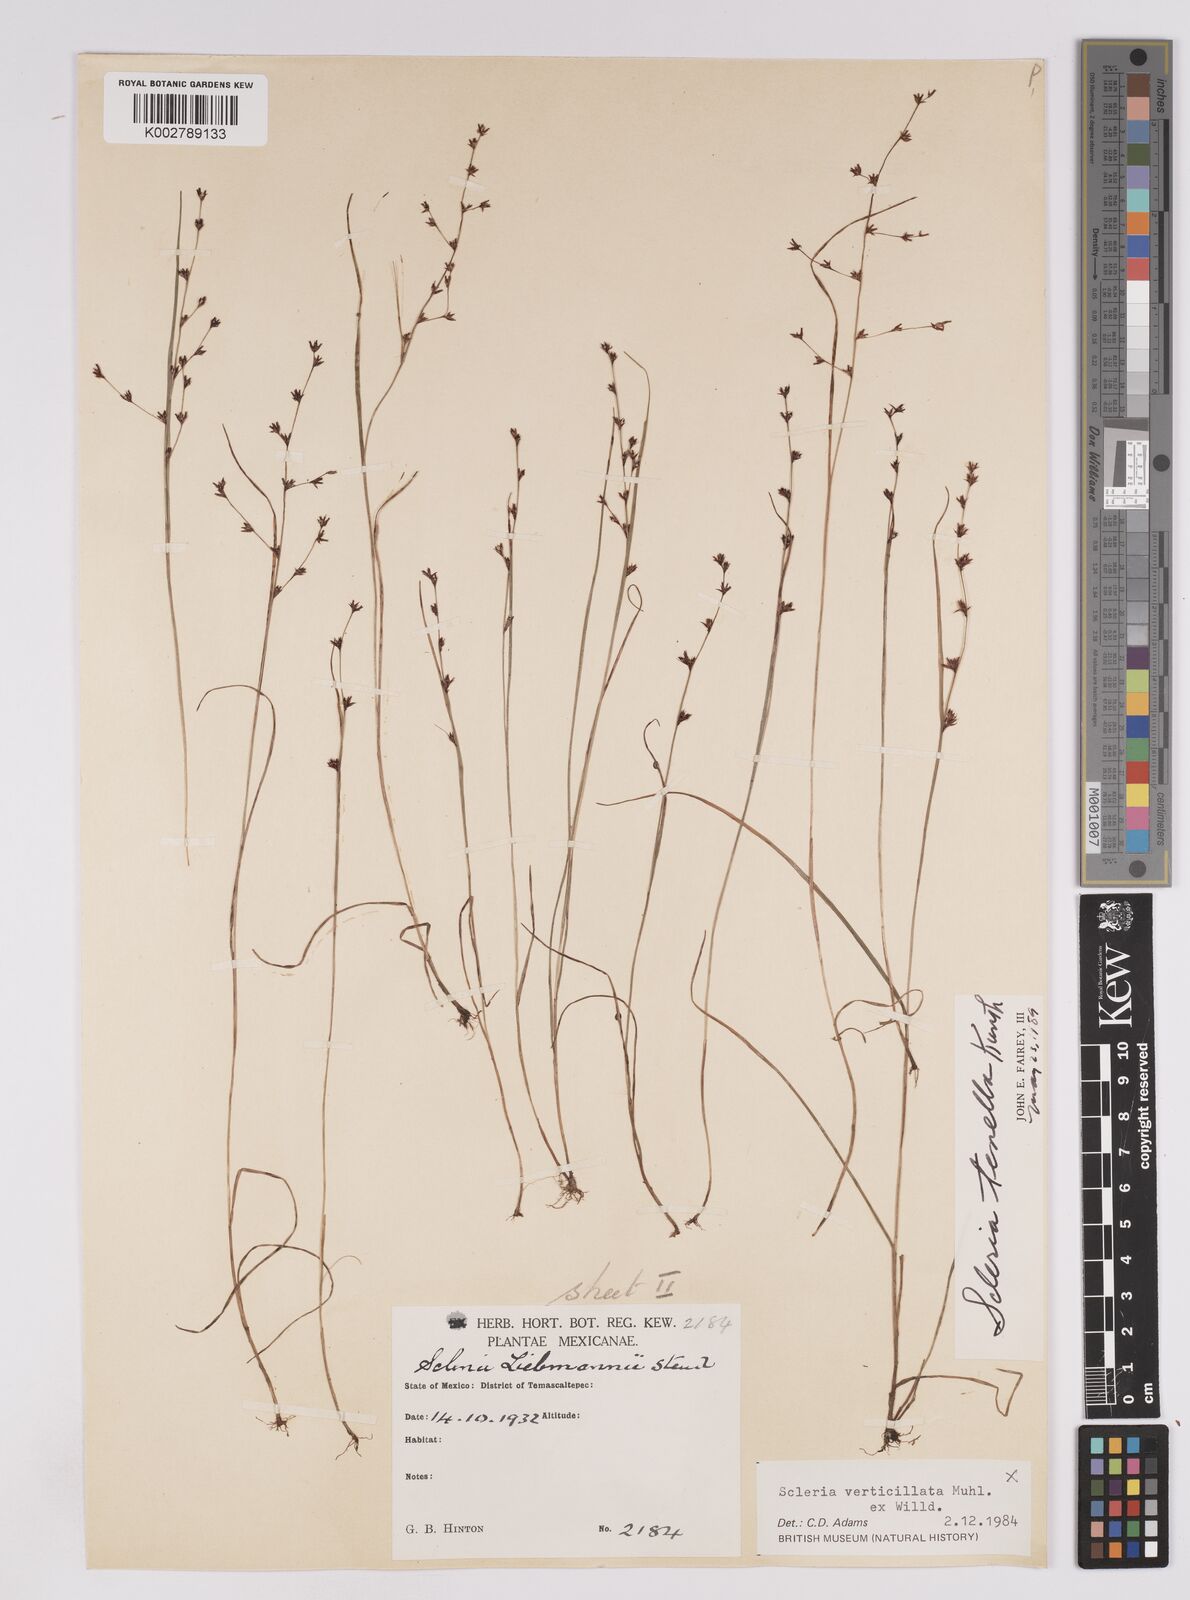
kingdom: Plantae
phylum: Tracheophyta
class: Liliopsida
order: Poales
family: Cyperaceae
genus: Scleria
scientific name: Scleria tenella
